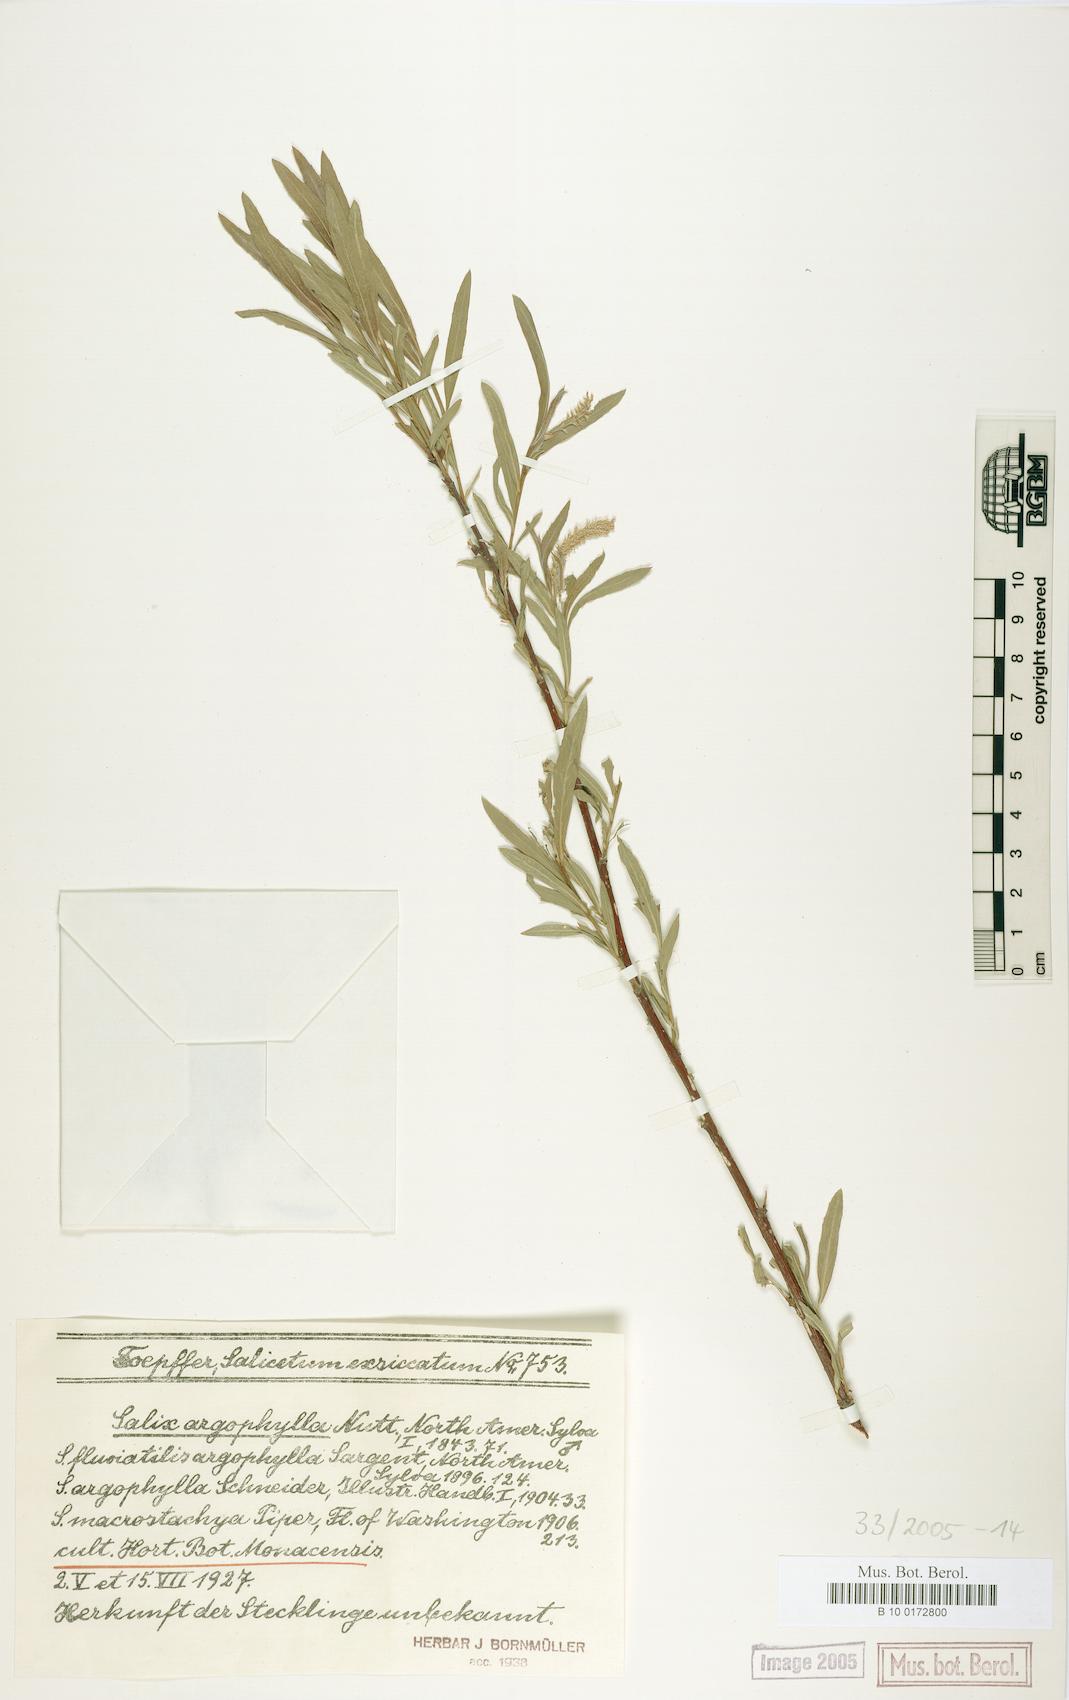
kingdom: Plantae
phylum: Tracheophyta
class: Magnoliopsida
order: Malpighiales
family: Salicaceae
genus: Salix
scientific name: Salix exigua
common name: Coyote willow
